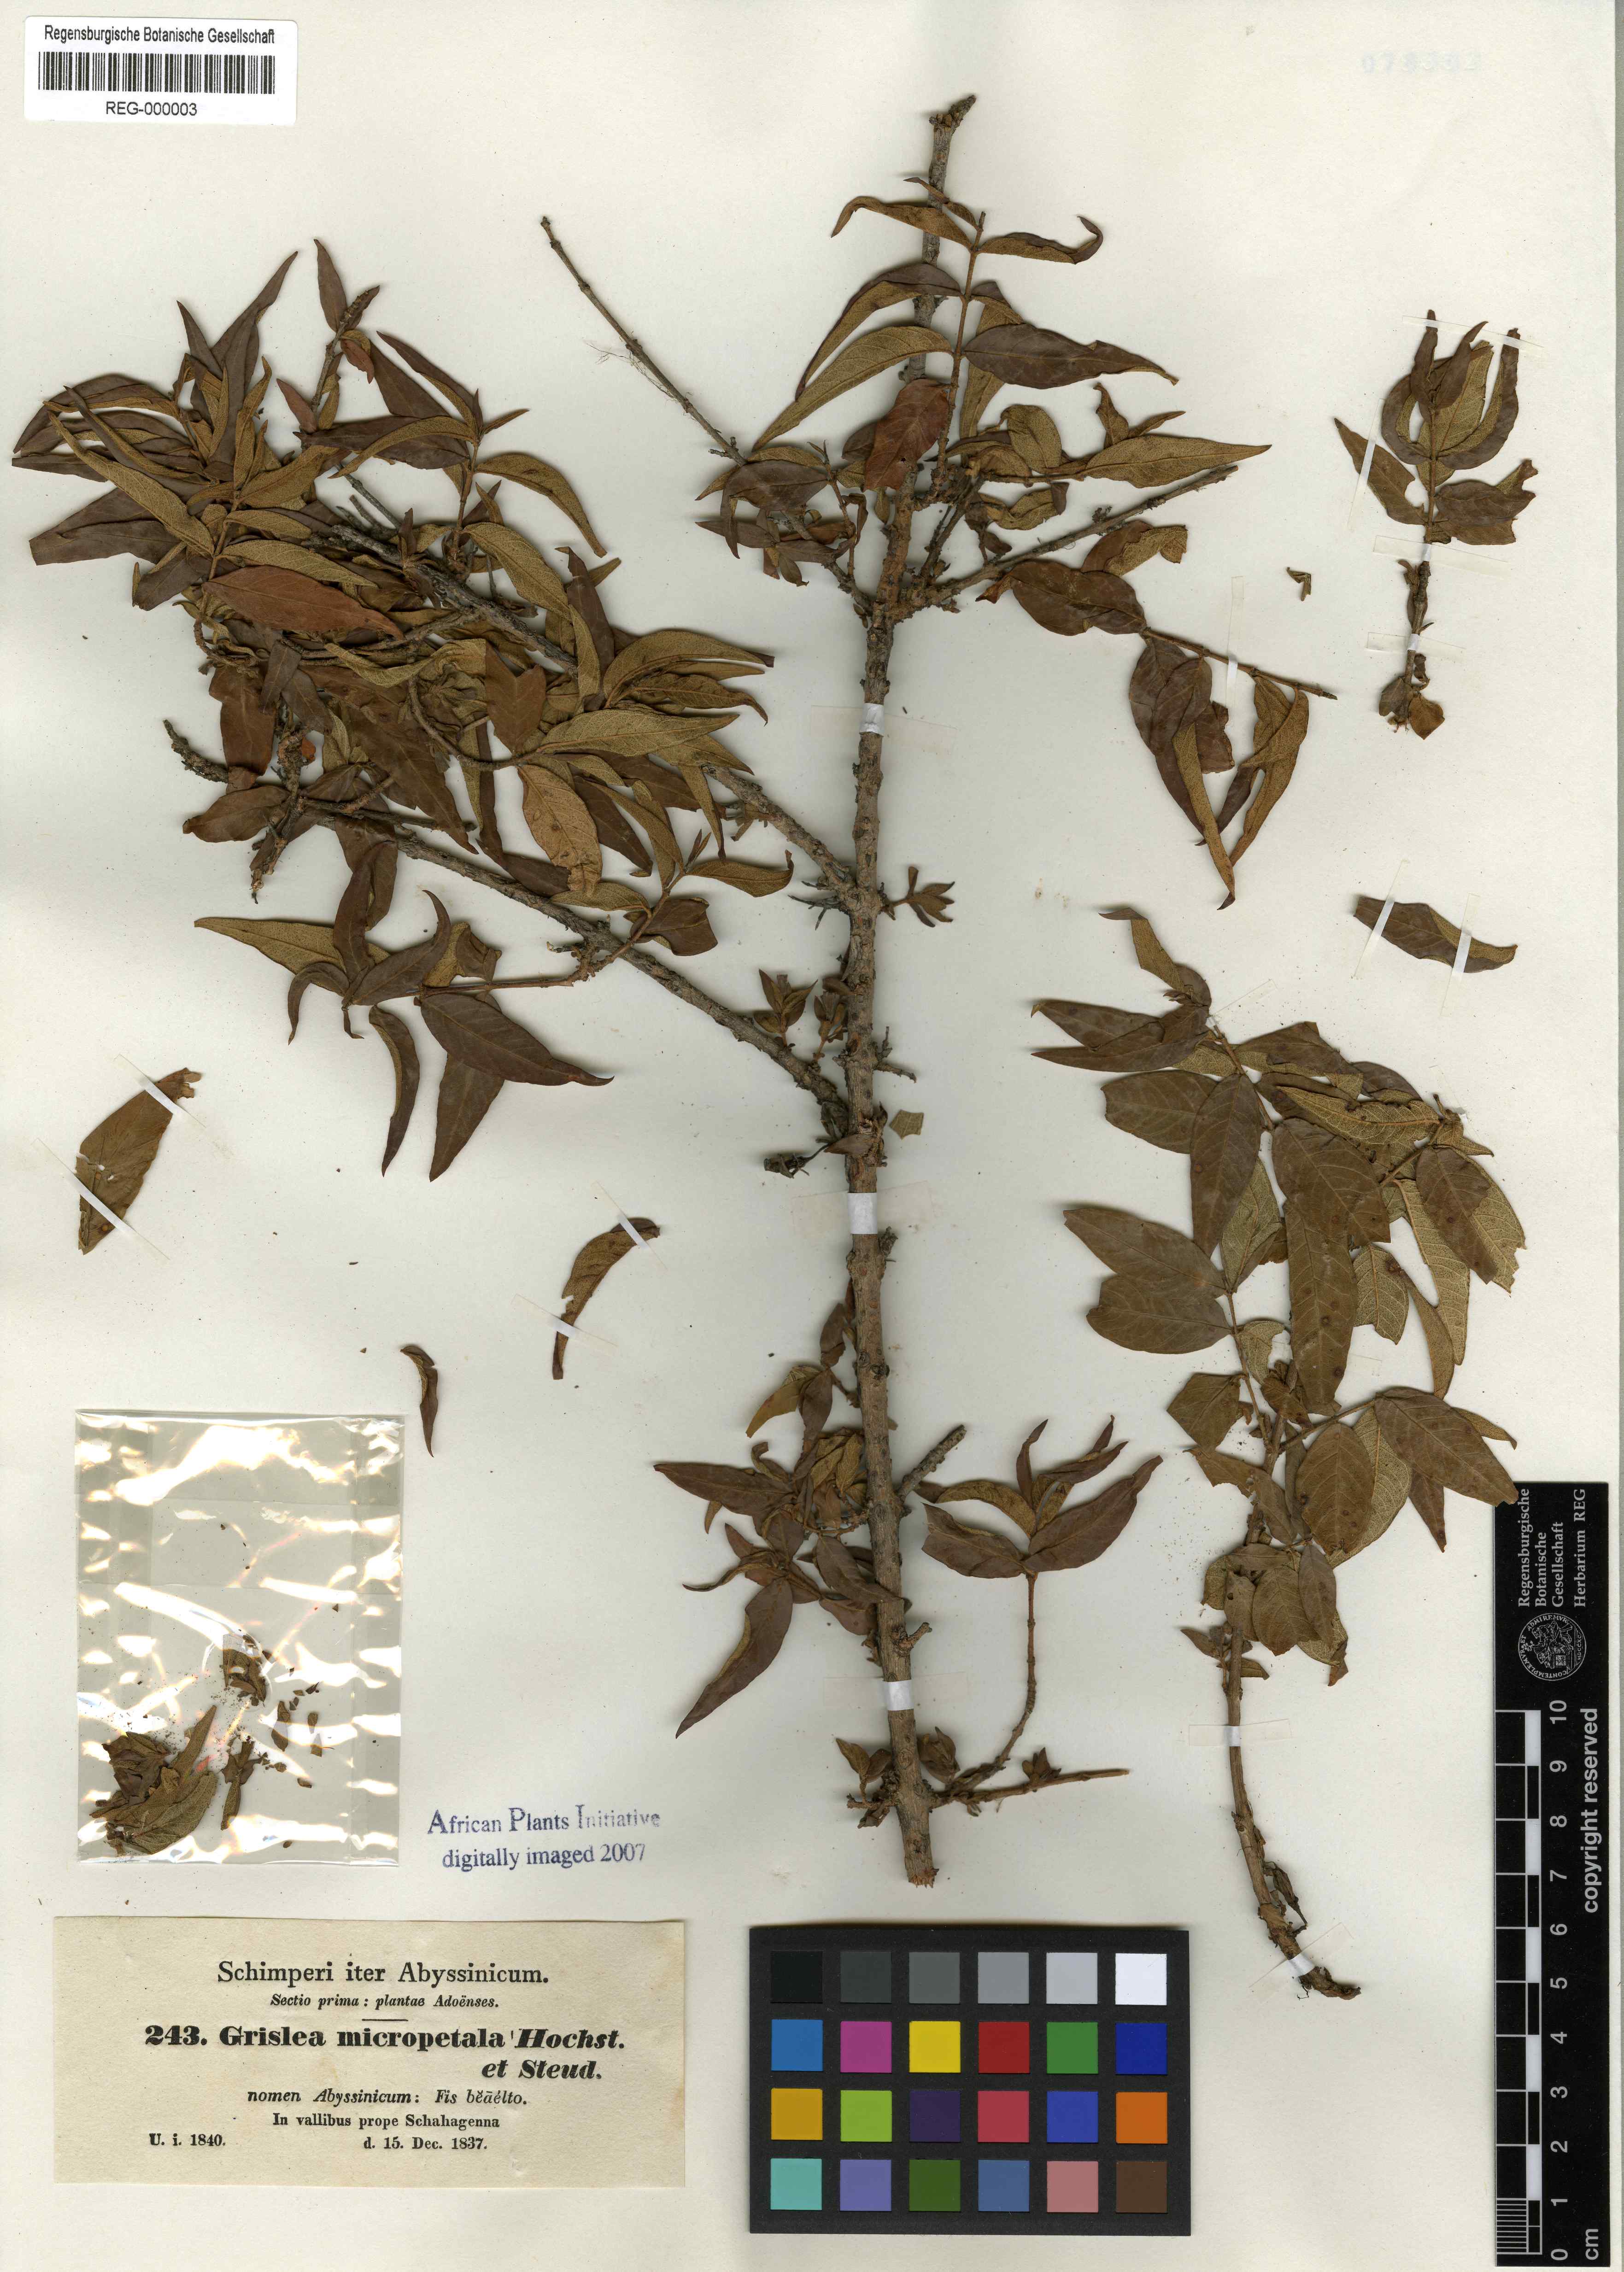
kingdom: Plantae
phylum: Tracheophyta
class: Magnoliopsida
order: Myrtales
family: Lythraceae
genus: Woodfordia
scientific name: Woodfordia uniflora
